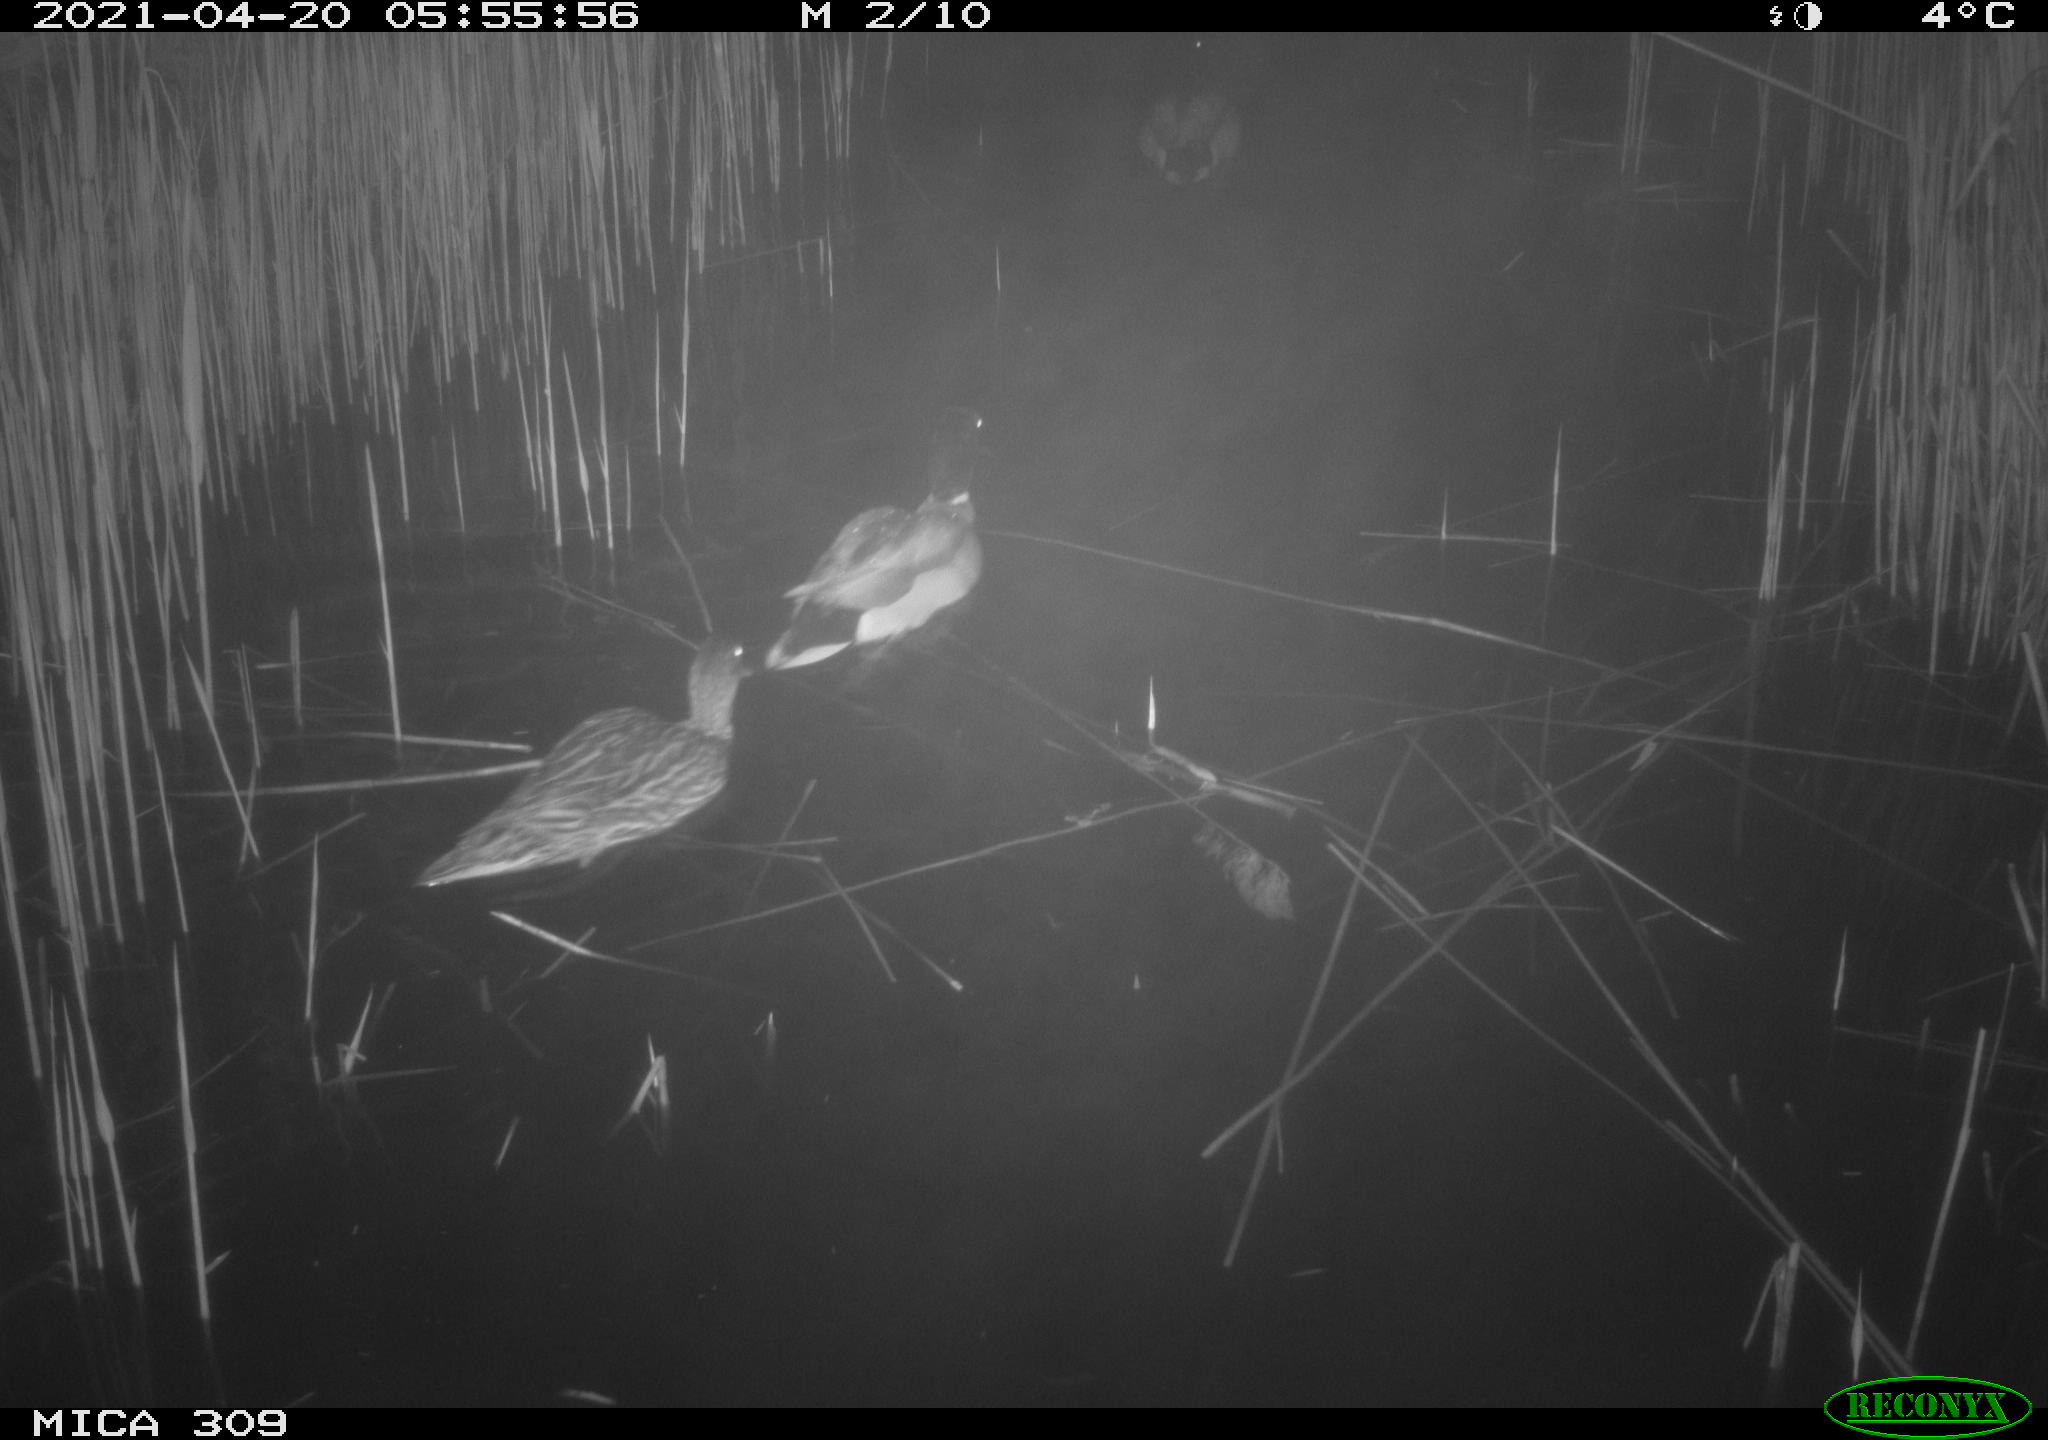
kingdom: Animalia
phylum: Chordata
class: Aves
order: Gruiformes
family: Rallidae
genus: Fulica
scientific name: Fulica atra
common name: Eurasian coot
